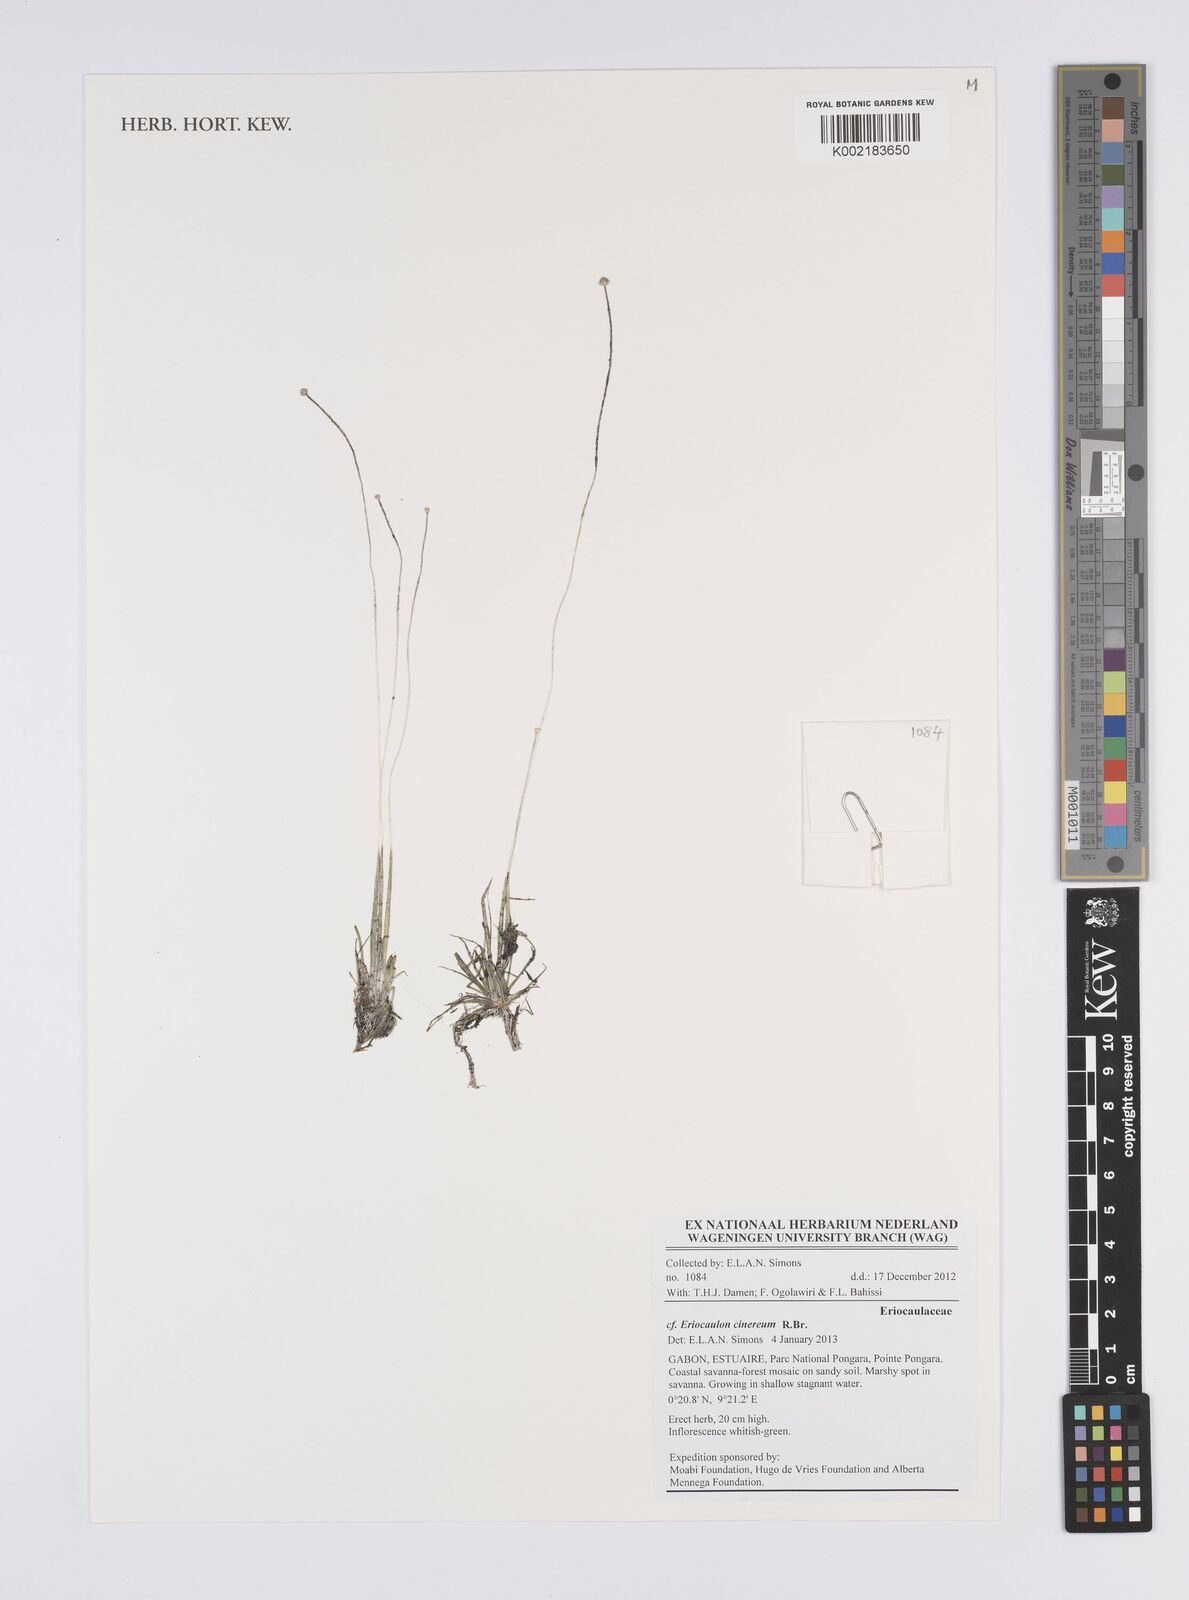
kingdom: Plantae
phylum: Tracheophyta
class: Liliopsida
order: Poales
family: Eriocaulaceae
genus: Eriocaulon
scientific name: Eriocaulon cinereum
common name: Ashy pipewort
